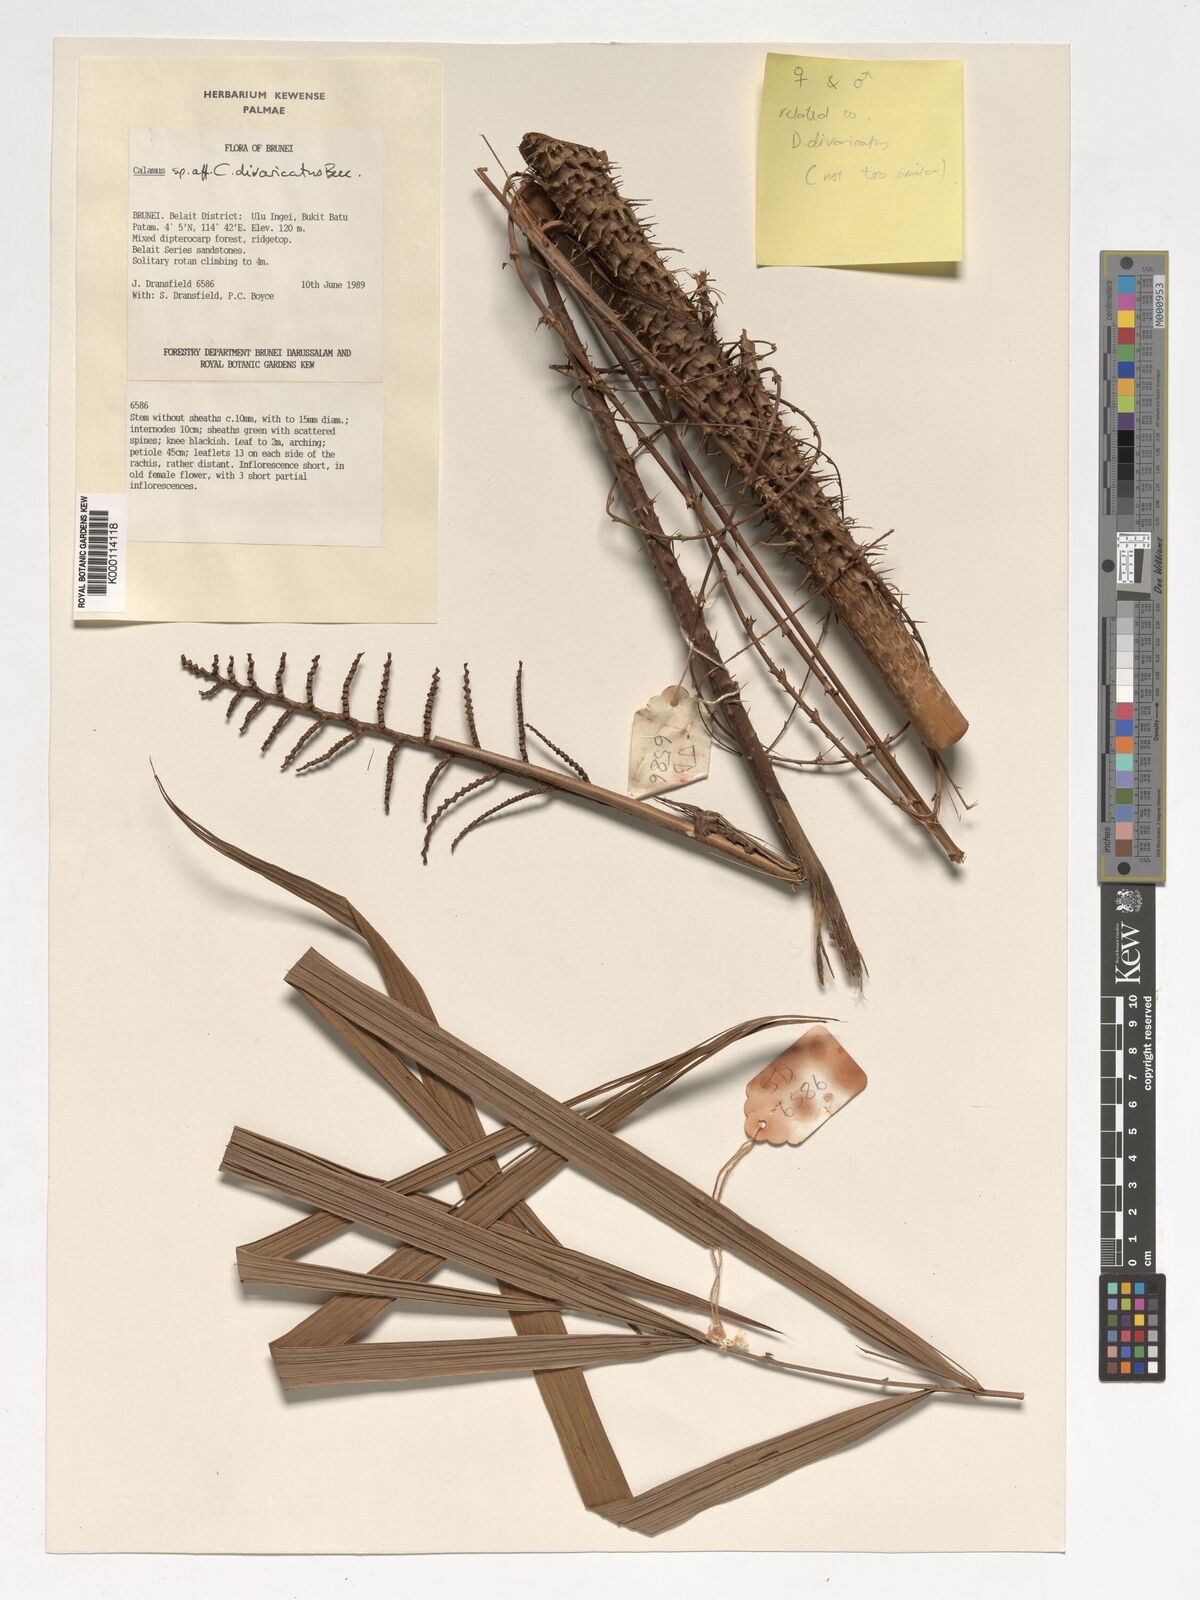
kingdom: Plantae
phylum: Tracheophyta
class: Liliopsida
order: Arecales
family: Arecaceae
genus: Calamus
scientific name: Calamus divaricatus
